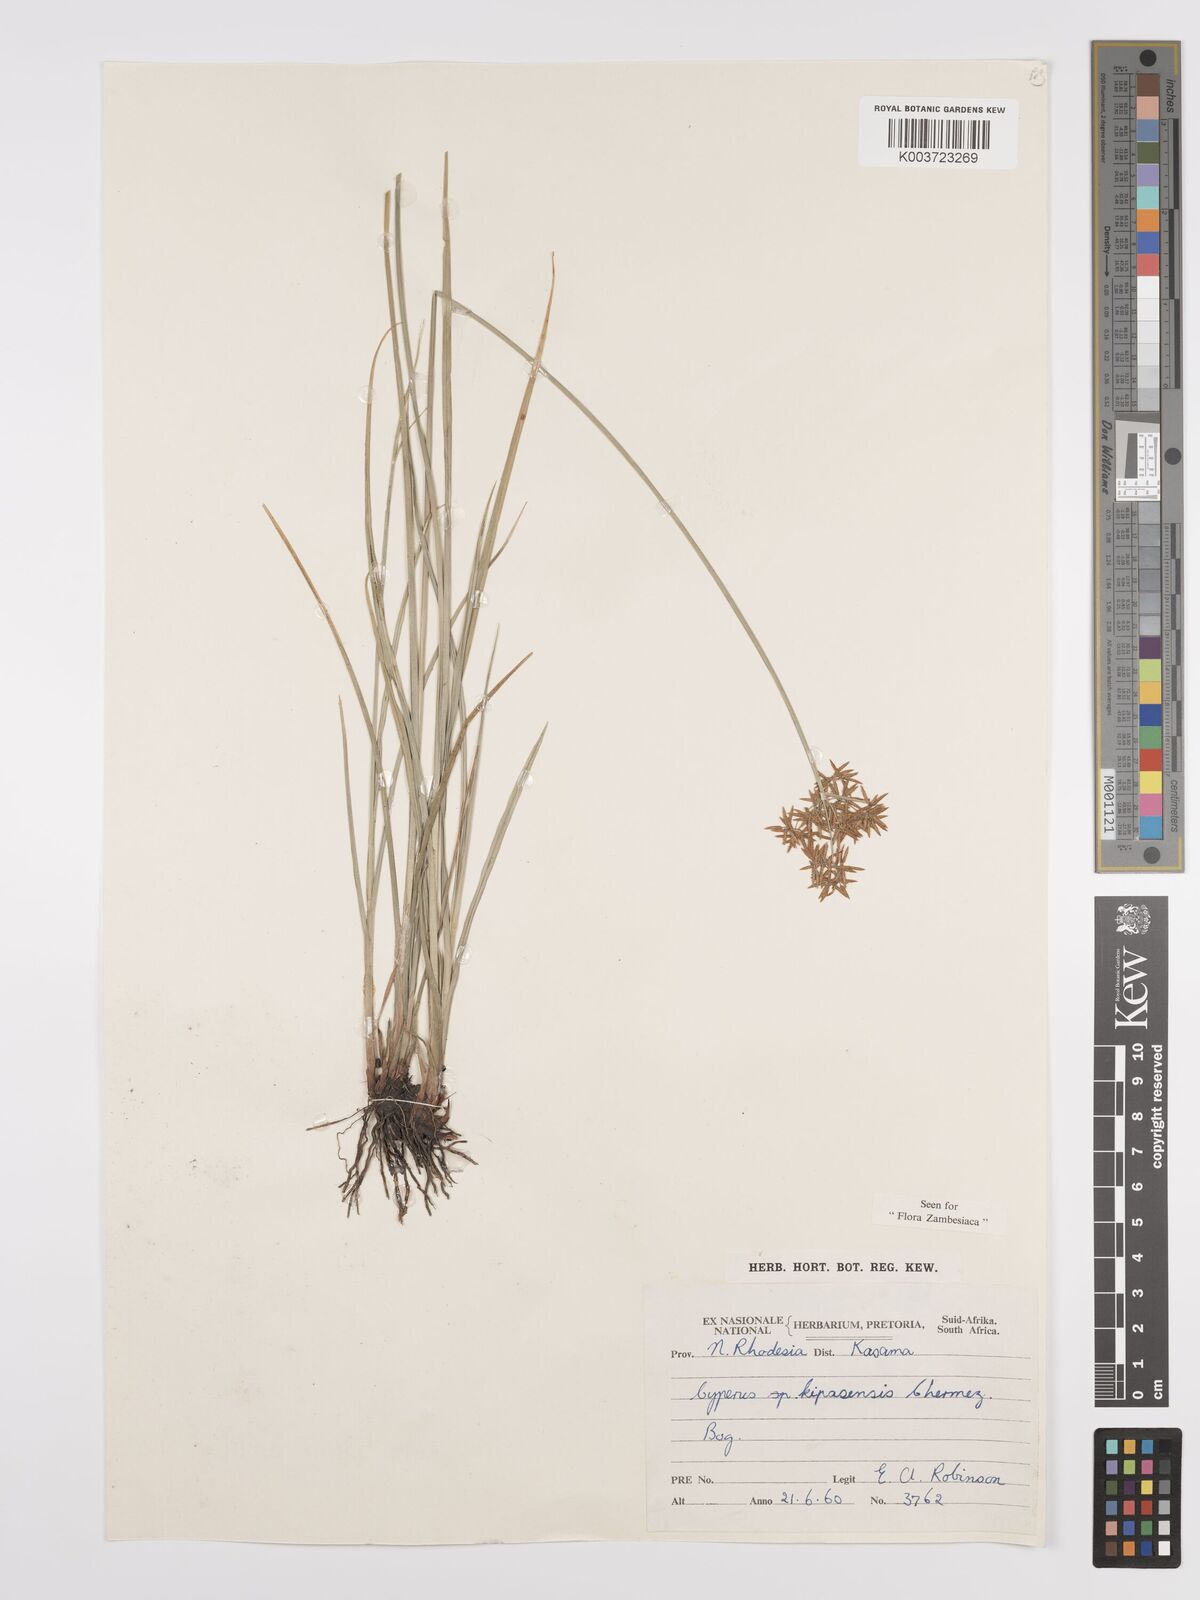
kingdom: Plantae
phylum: Tracheophyta
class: Liliopsida
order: Poales
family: Cyperaceae
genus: Cyperus
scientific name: Cyperus kipasensis
